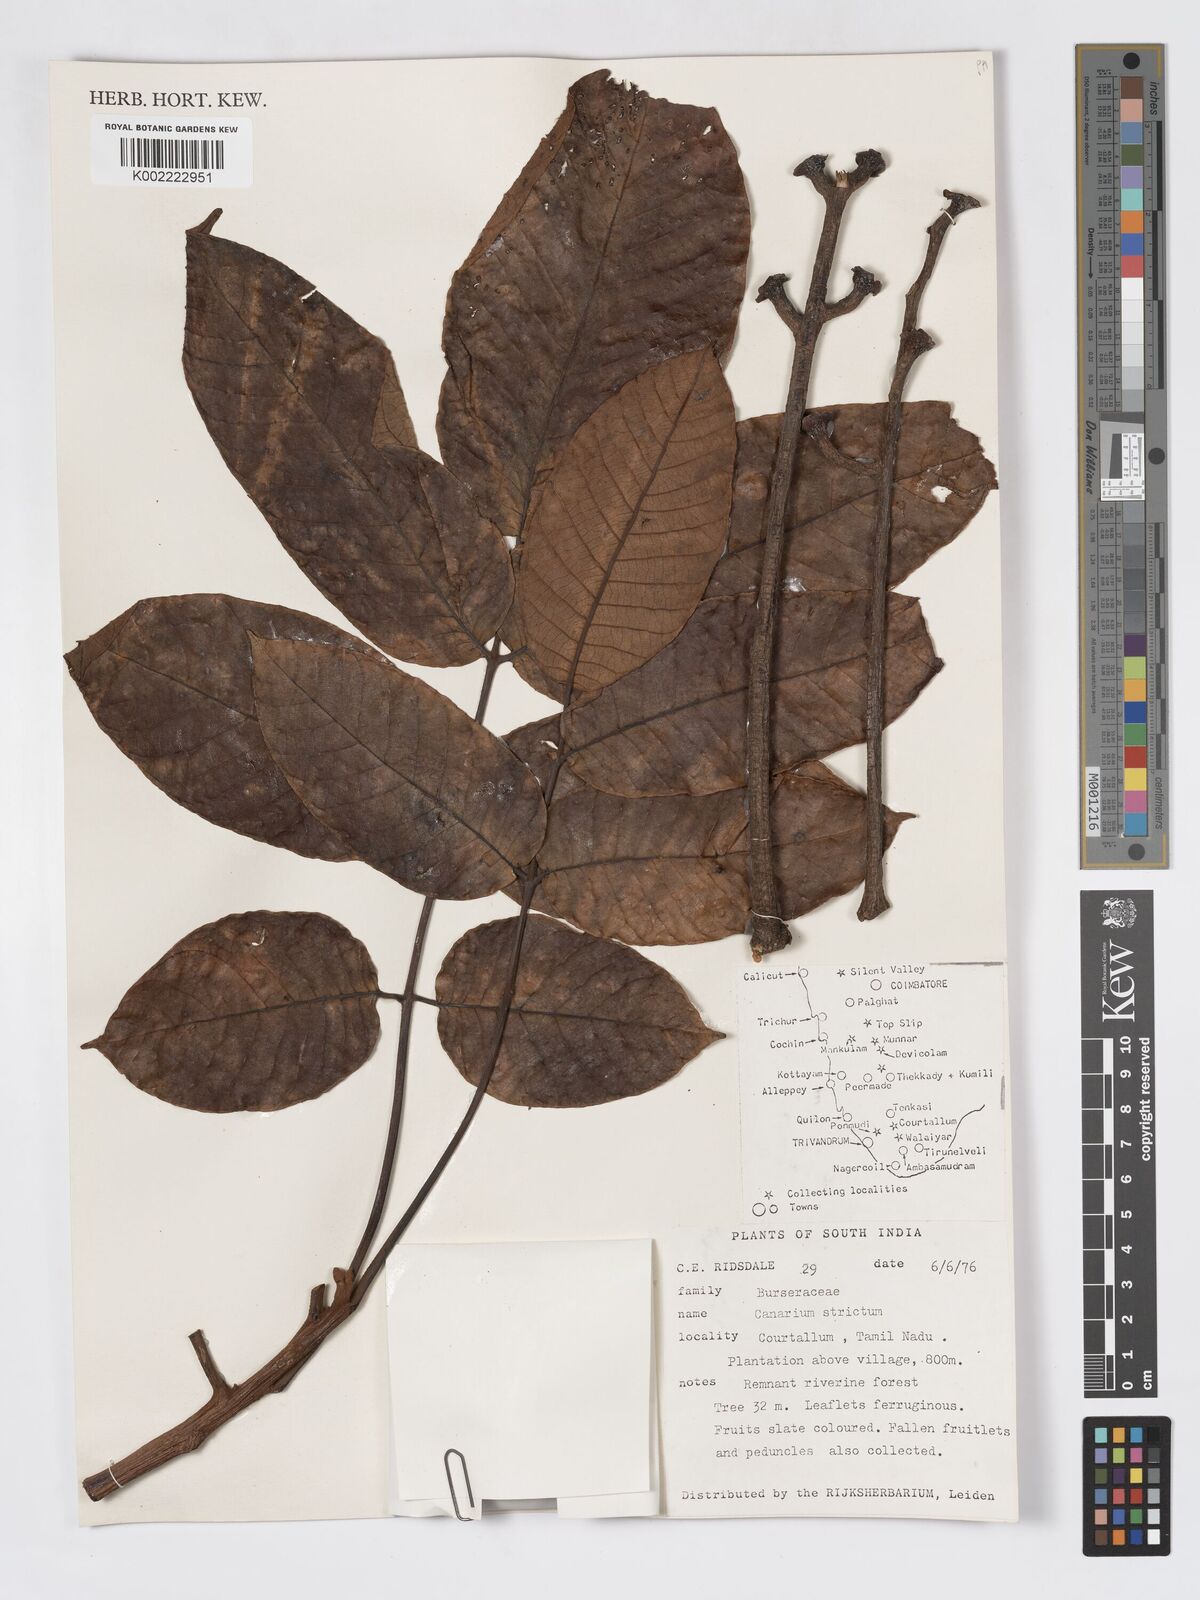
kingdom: Plantae
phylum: Tracheophyta
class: Magnoliopsida
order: Sapindales
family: Burseraceae
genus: Canarium
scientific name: Canarium strictum
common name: Indian white-mahogany
